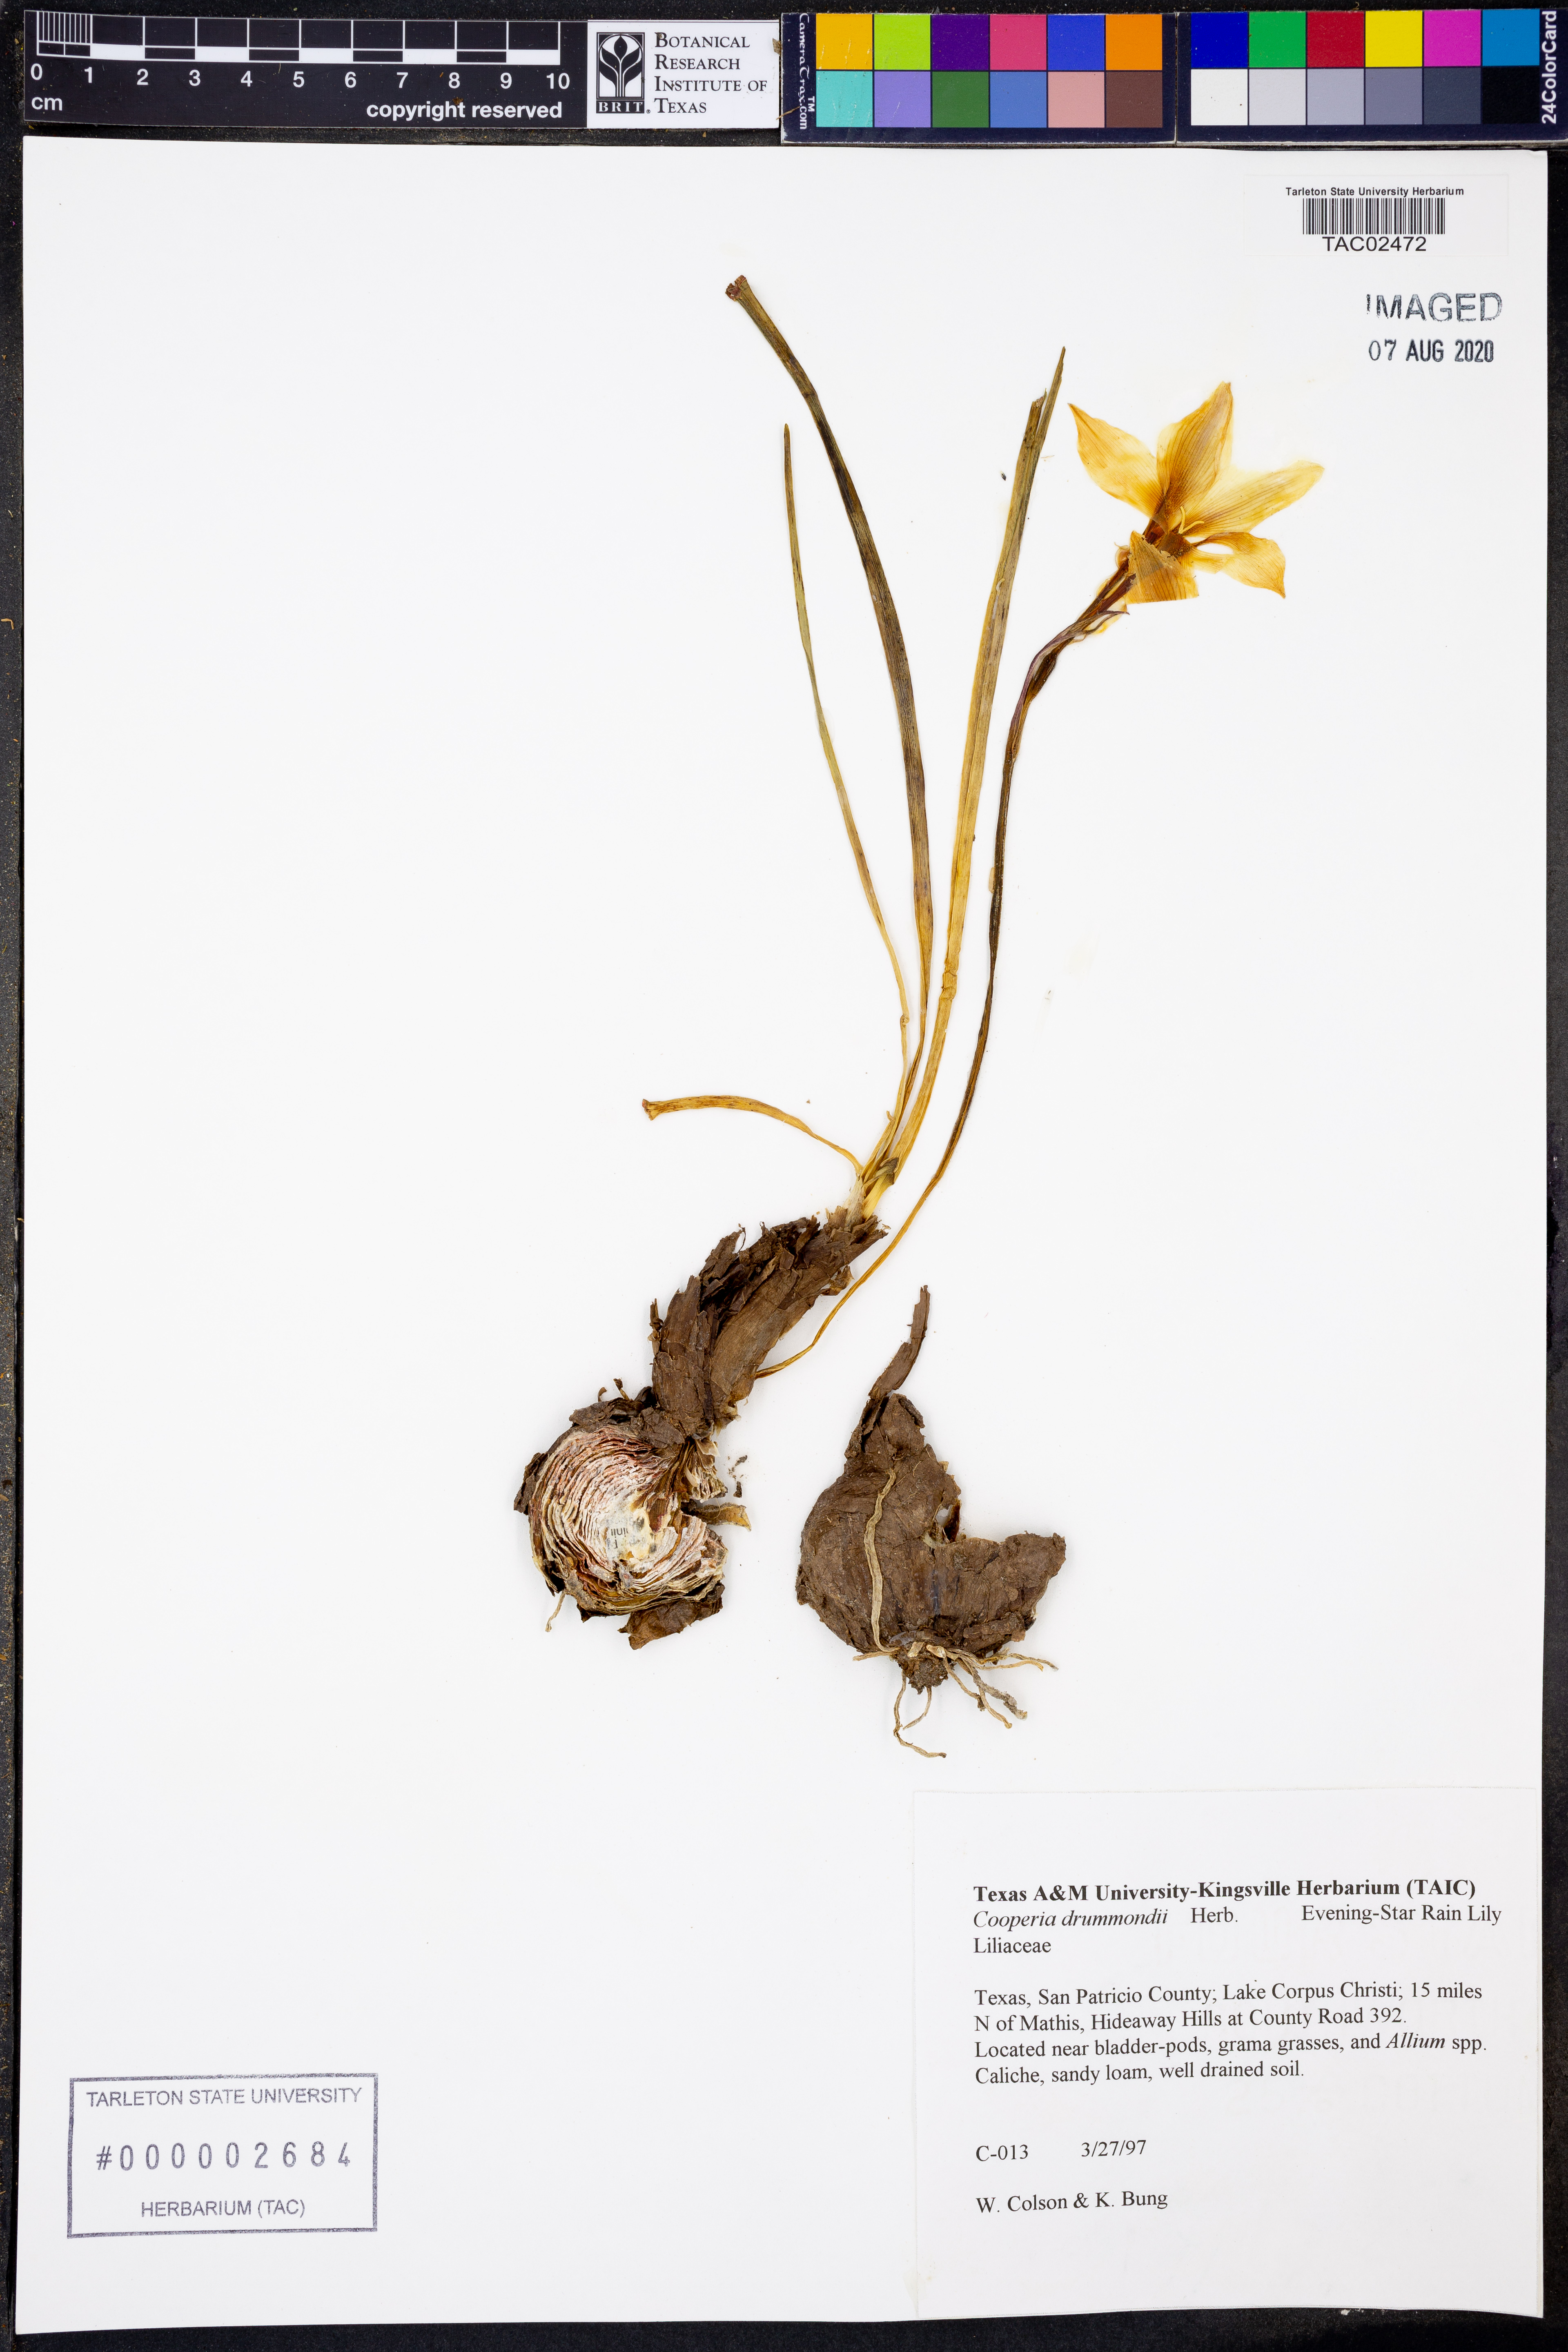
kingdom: Plantae
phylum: Tracheophyta
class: Liliopsida
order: Asparagales
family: Amaryllidaceae
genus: Zephyranthes
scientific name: Zephyranthes chlorosolen
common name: Evening rain-lily
